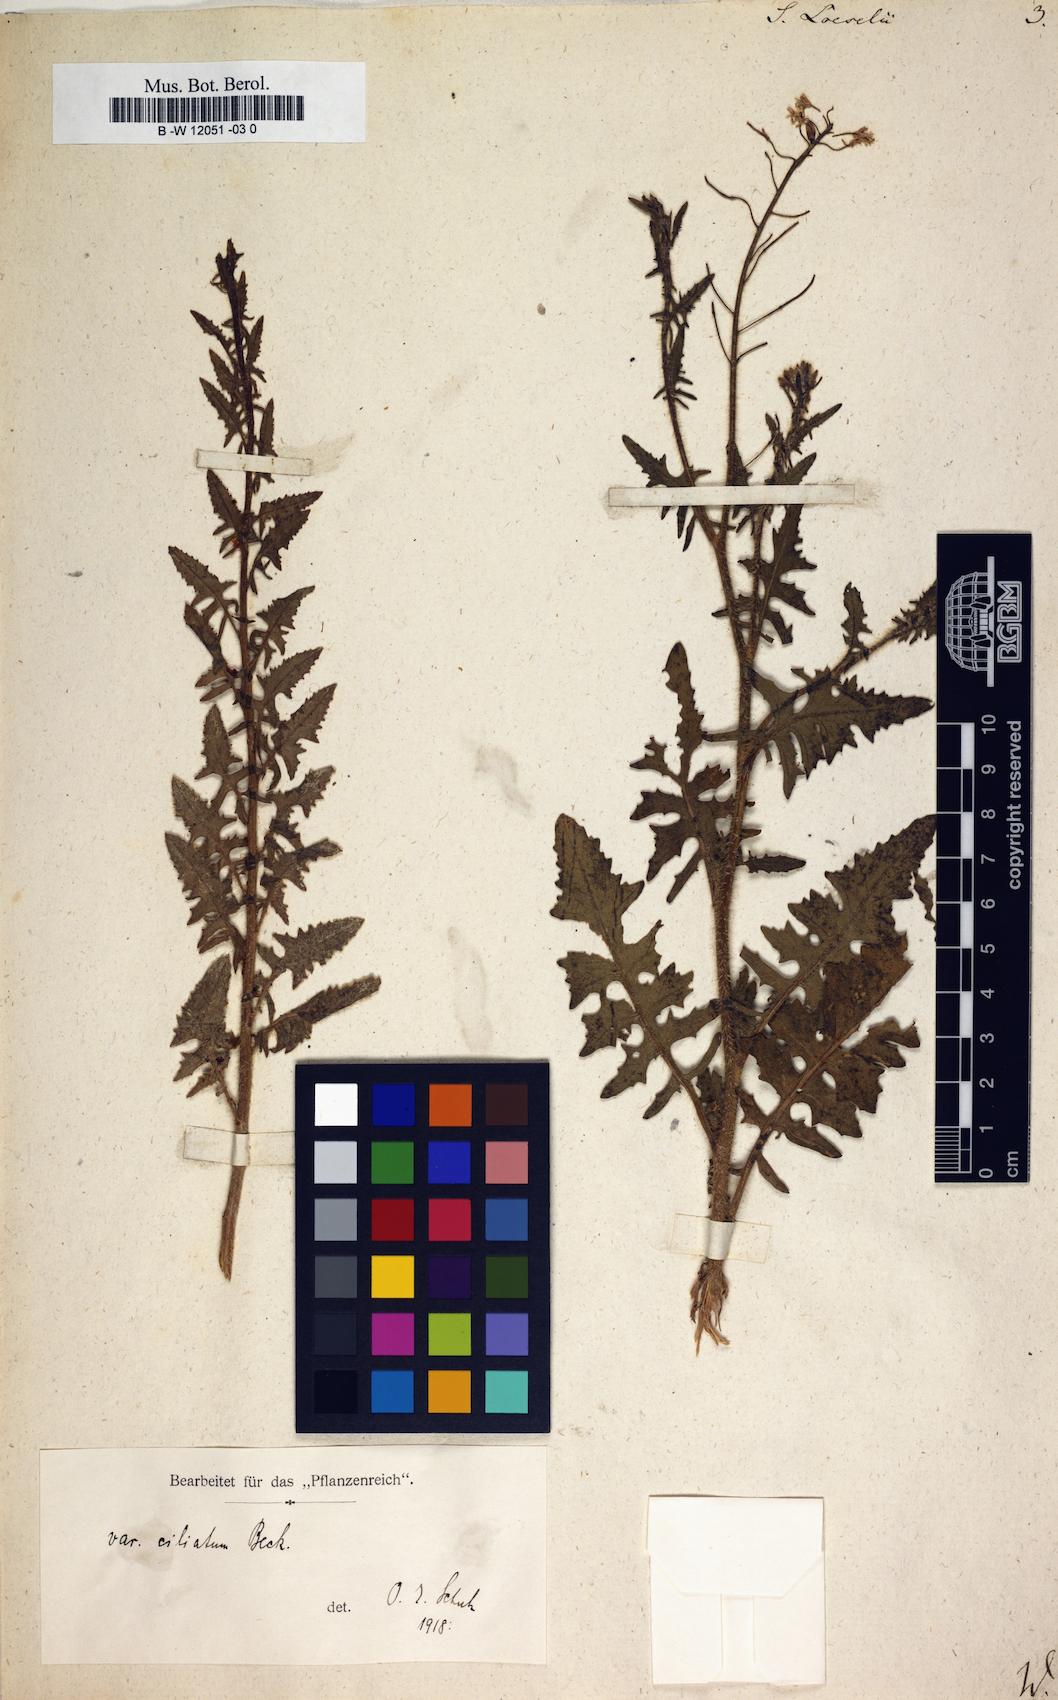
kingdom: Plantae
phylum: Tracheophyta
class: Magnoliopsida
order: Brassicales
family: Brassicaceae
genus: Sisymbrium
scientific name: Sisymbrium loeselii
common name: False london-rocket
